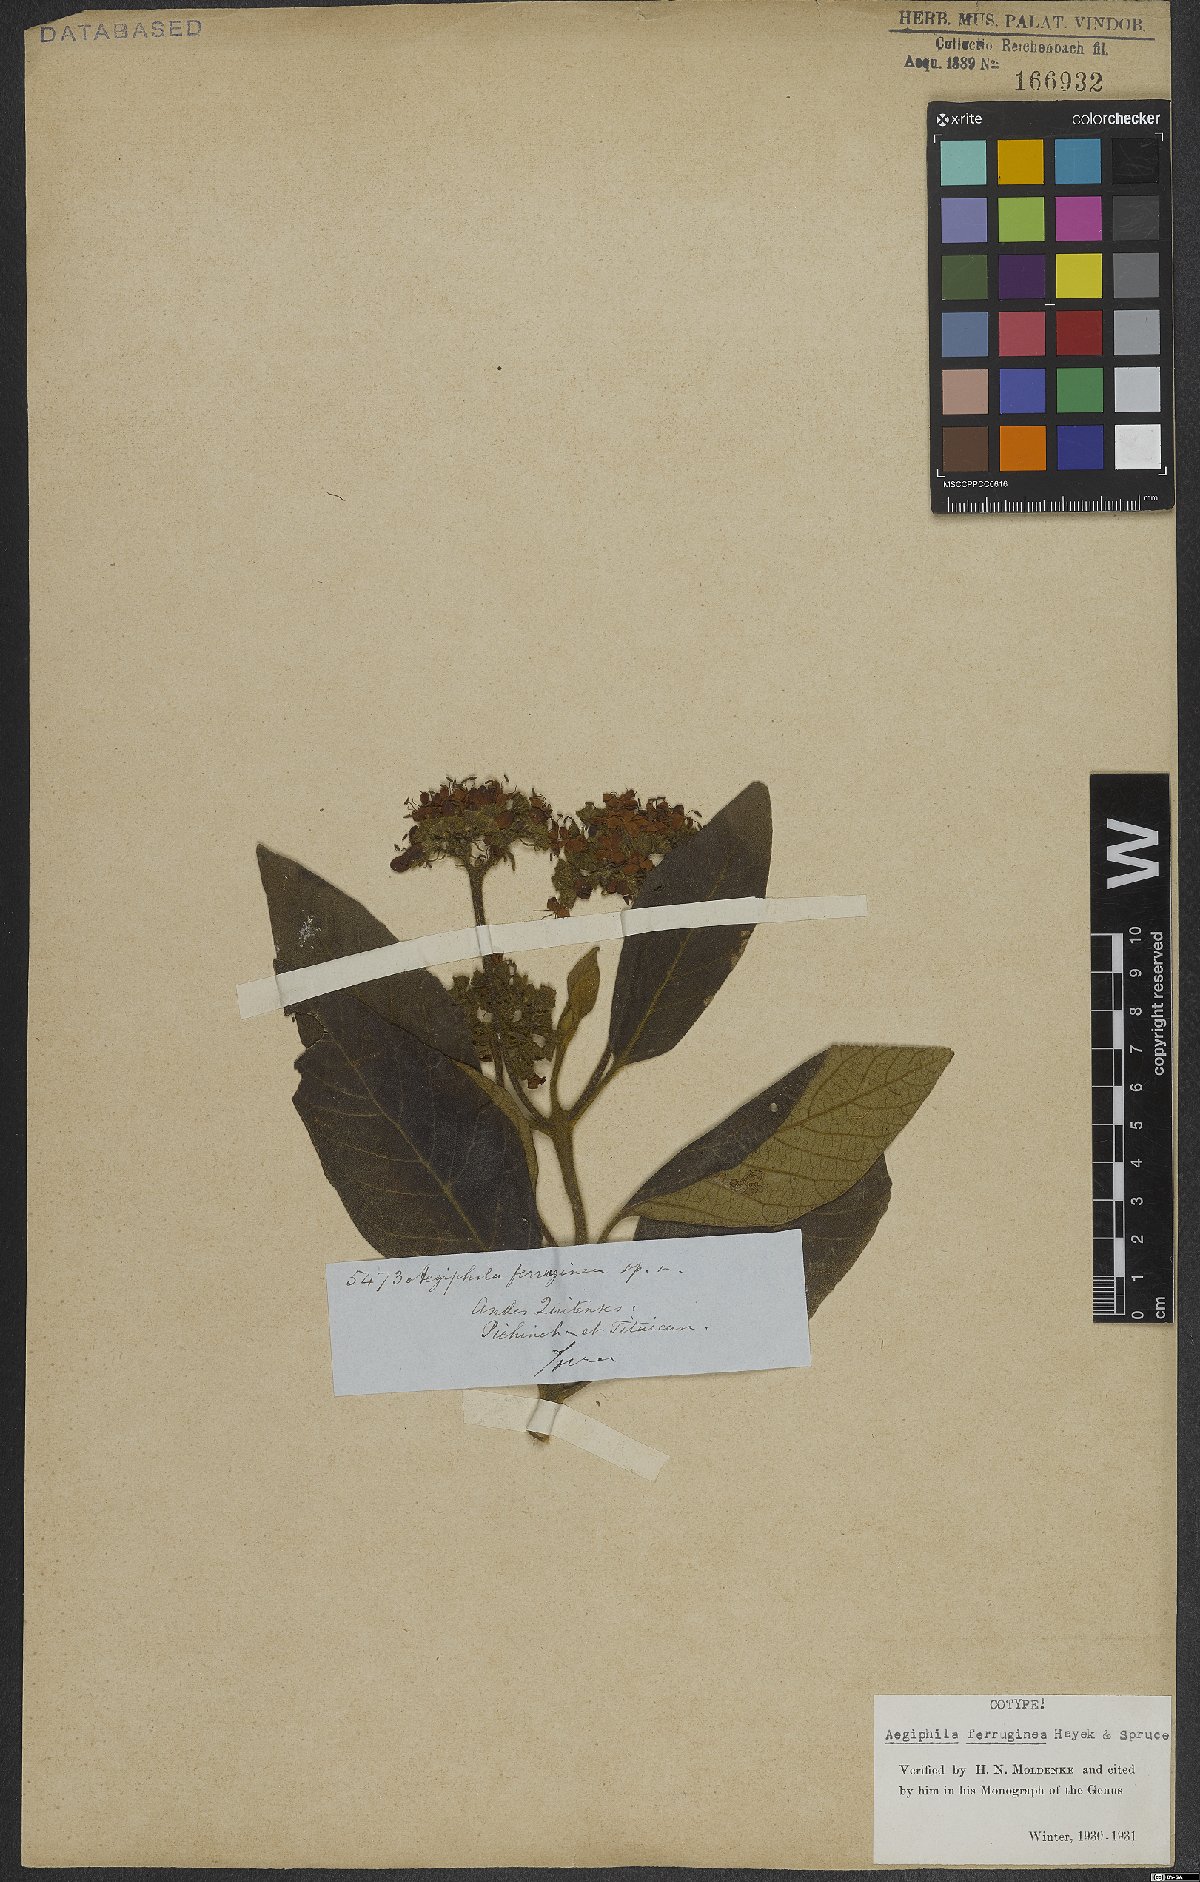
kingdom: Plantae
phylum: Tracheophyta
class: Magnoliopsida
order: Lamiales
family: Lamiaceae
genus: Aegiphila
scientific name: Aegiphila ferruginea
